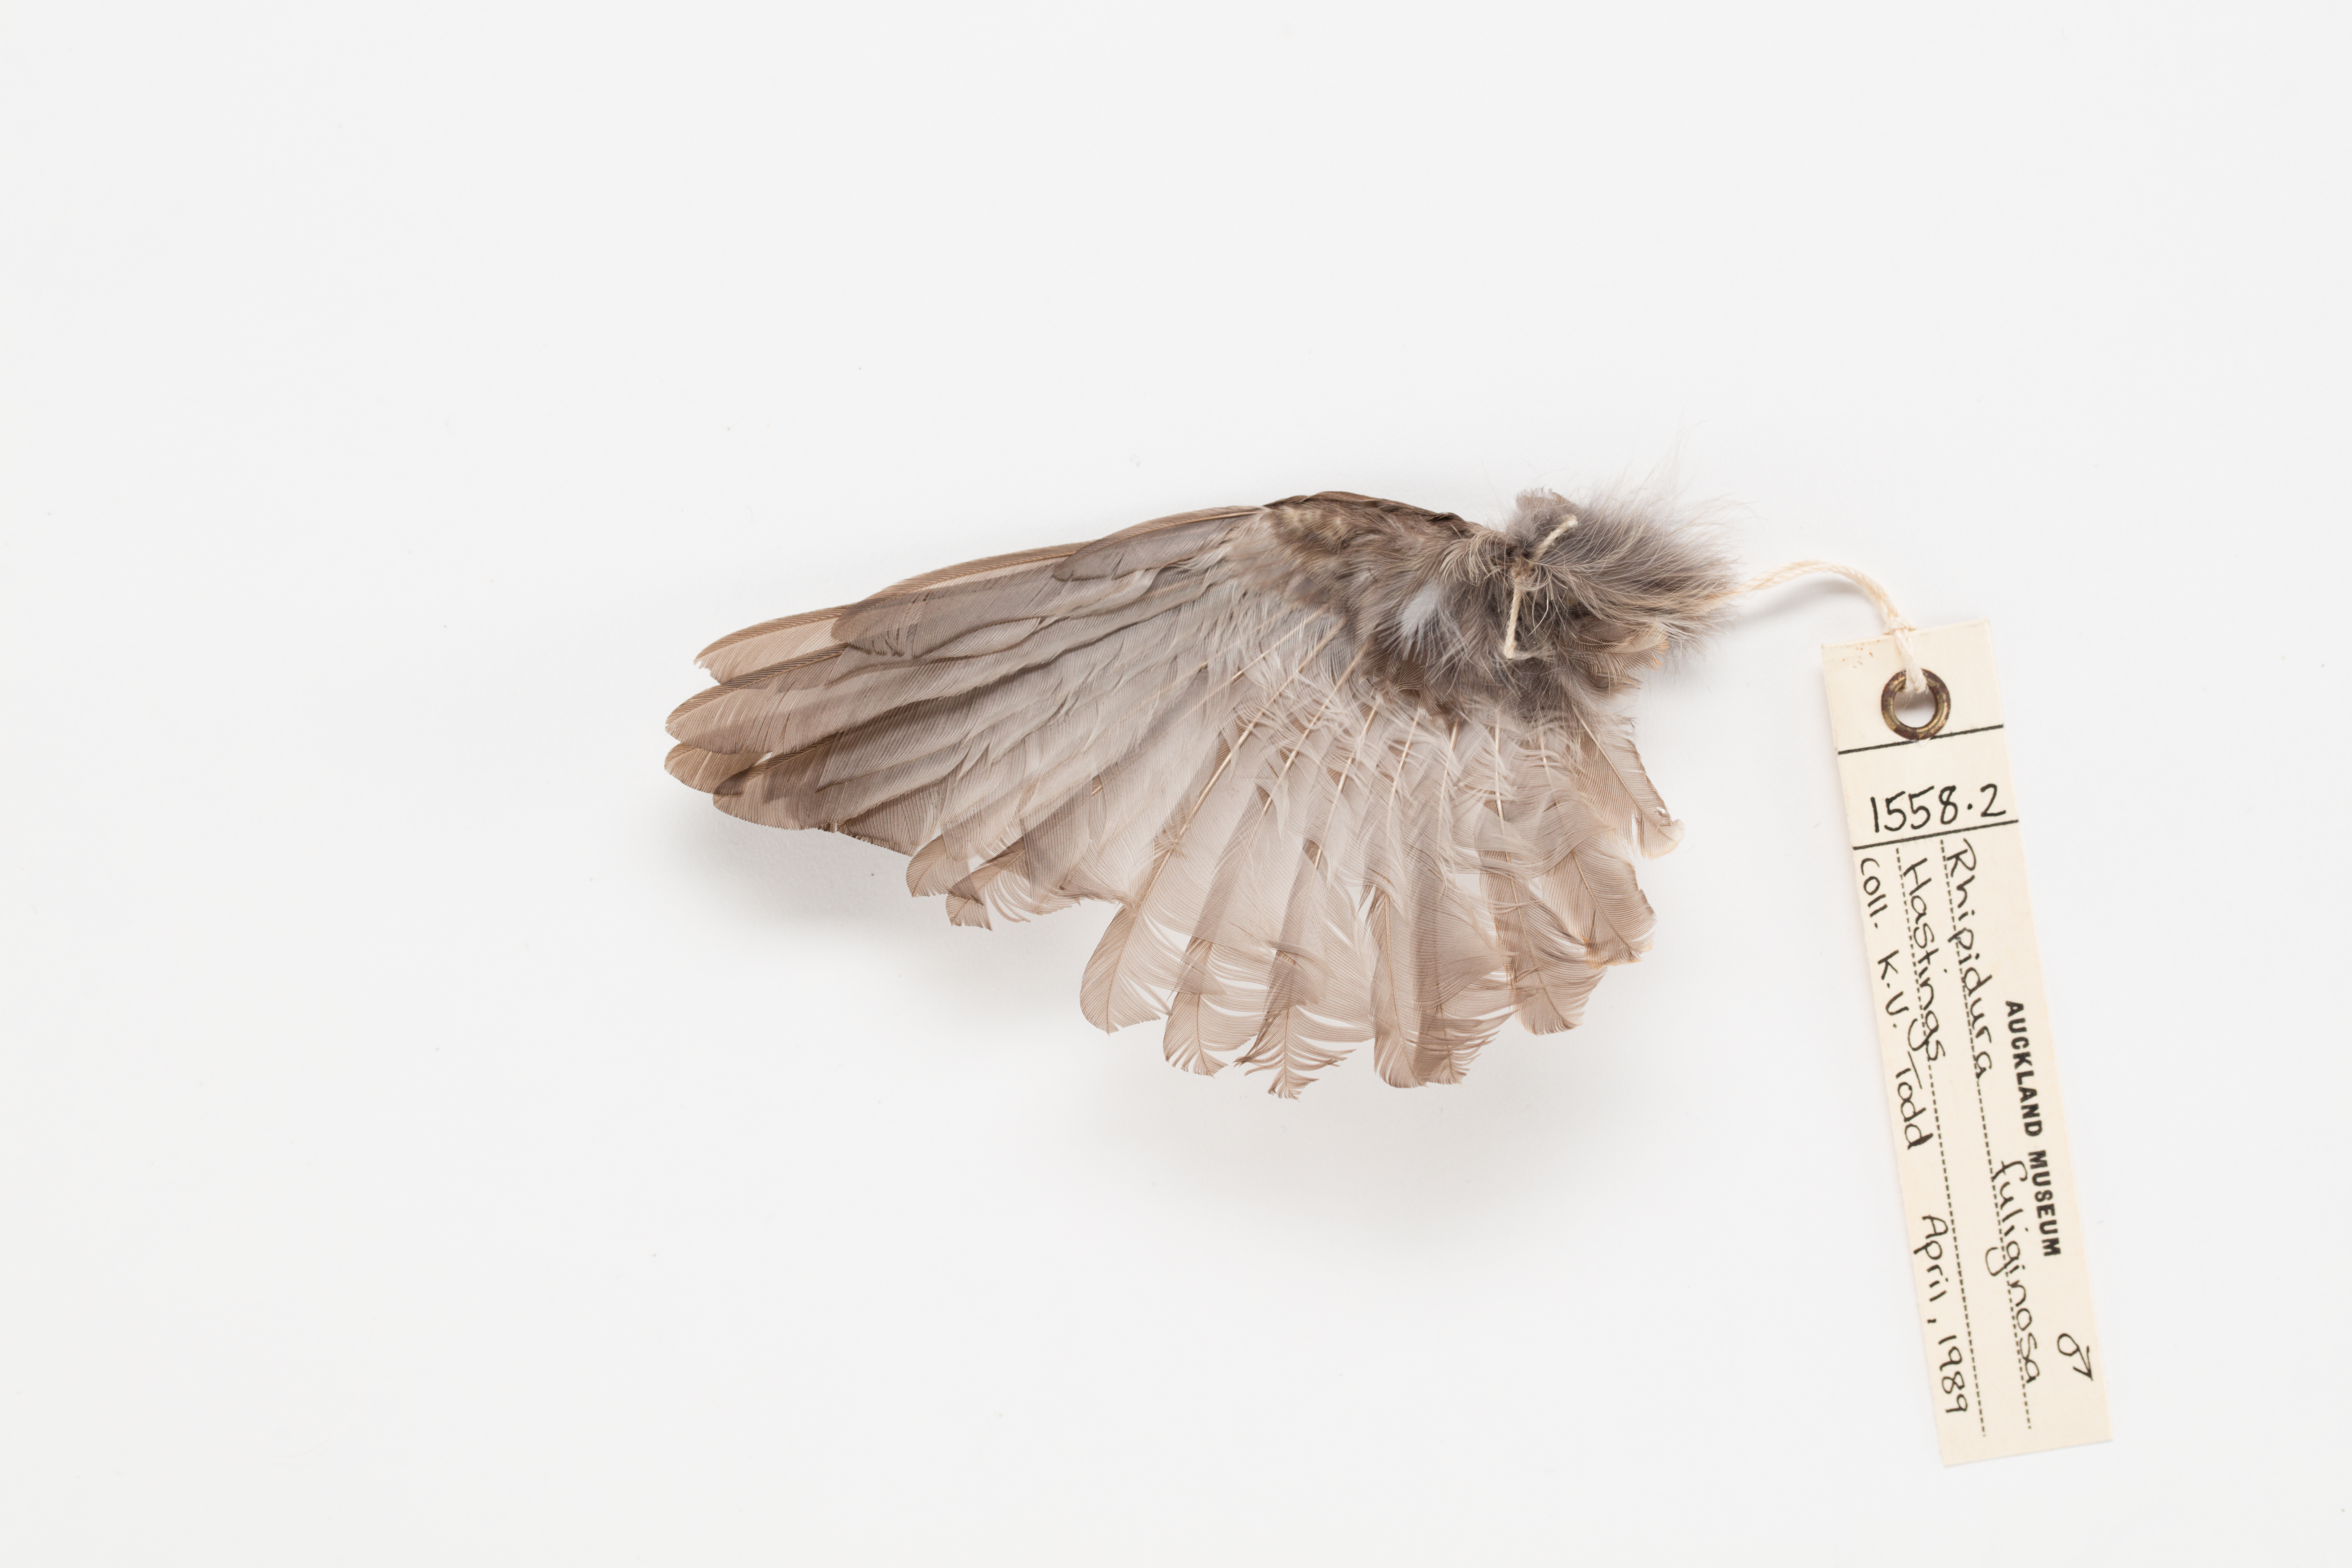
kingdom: Animalia
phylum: Chordata
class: Aves
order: Passeriformes
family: Rhipiduridae
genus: Rhipidura
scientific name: Rhipidura fuliginosa
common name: New zealand fantail
